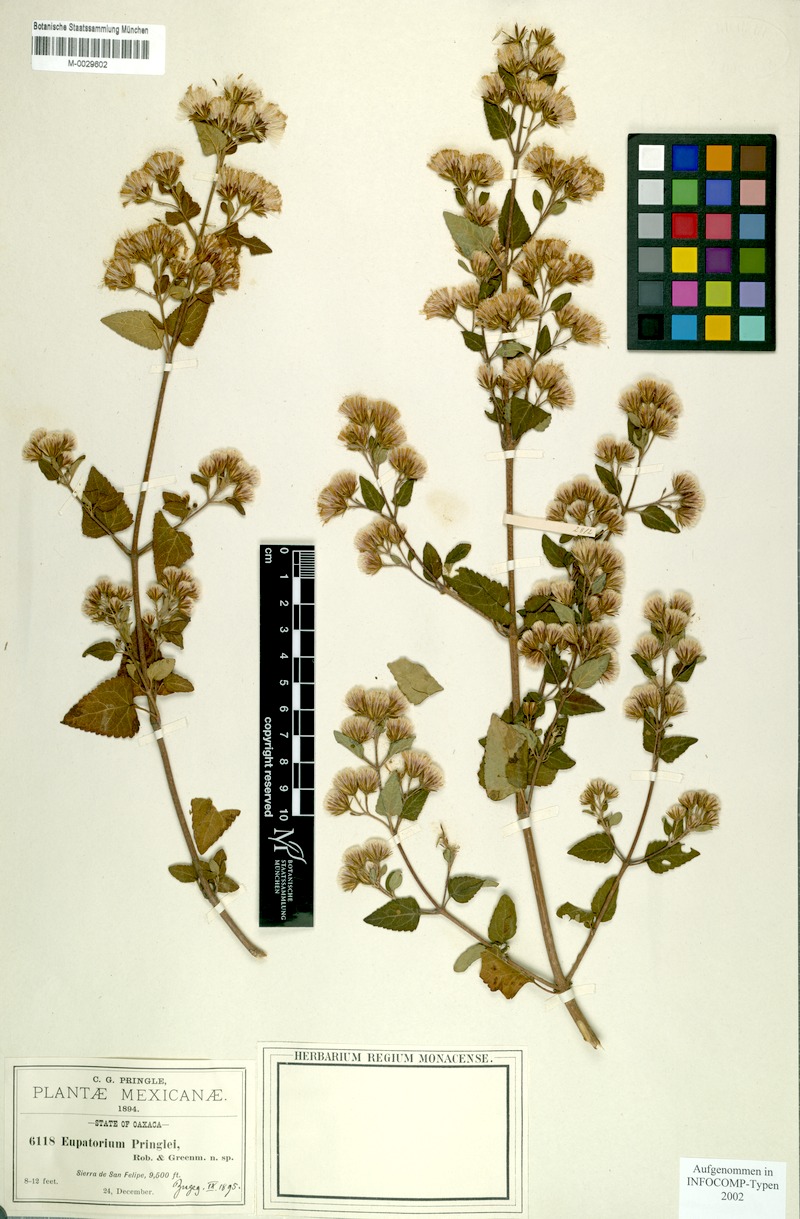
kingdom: Plantae
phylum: Tracheophyta
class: Magnoliopsida
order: Asterales
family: Asteraceae
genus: Ageratina
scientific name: Ageratina pringlei
